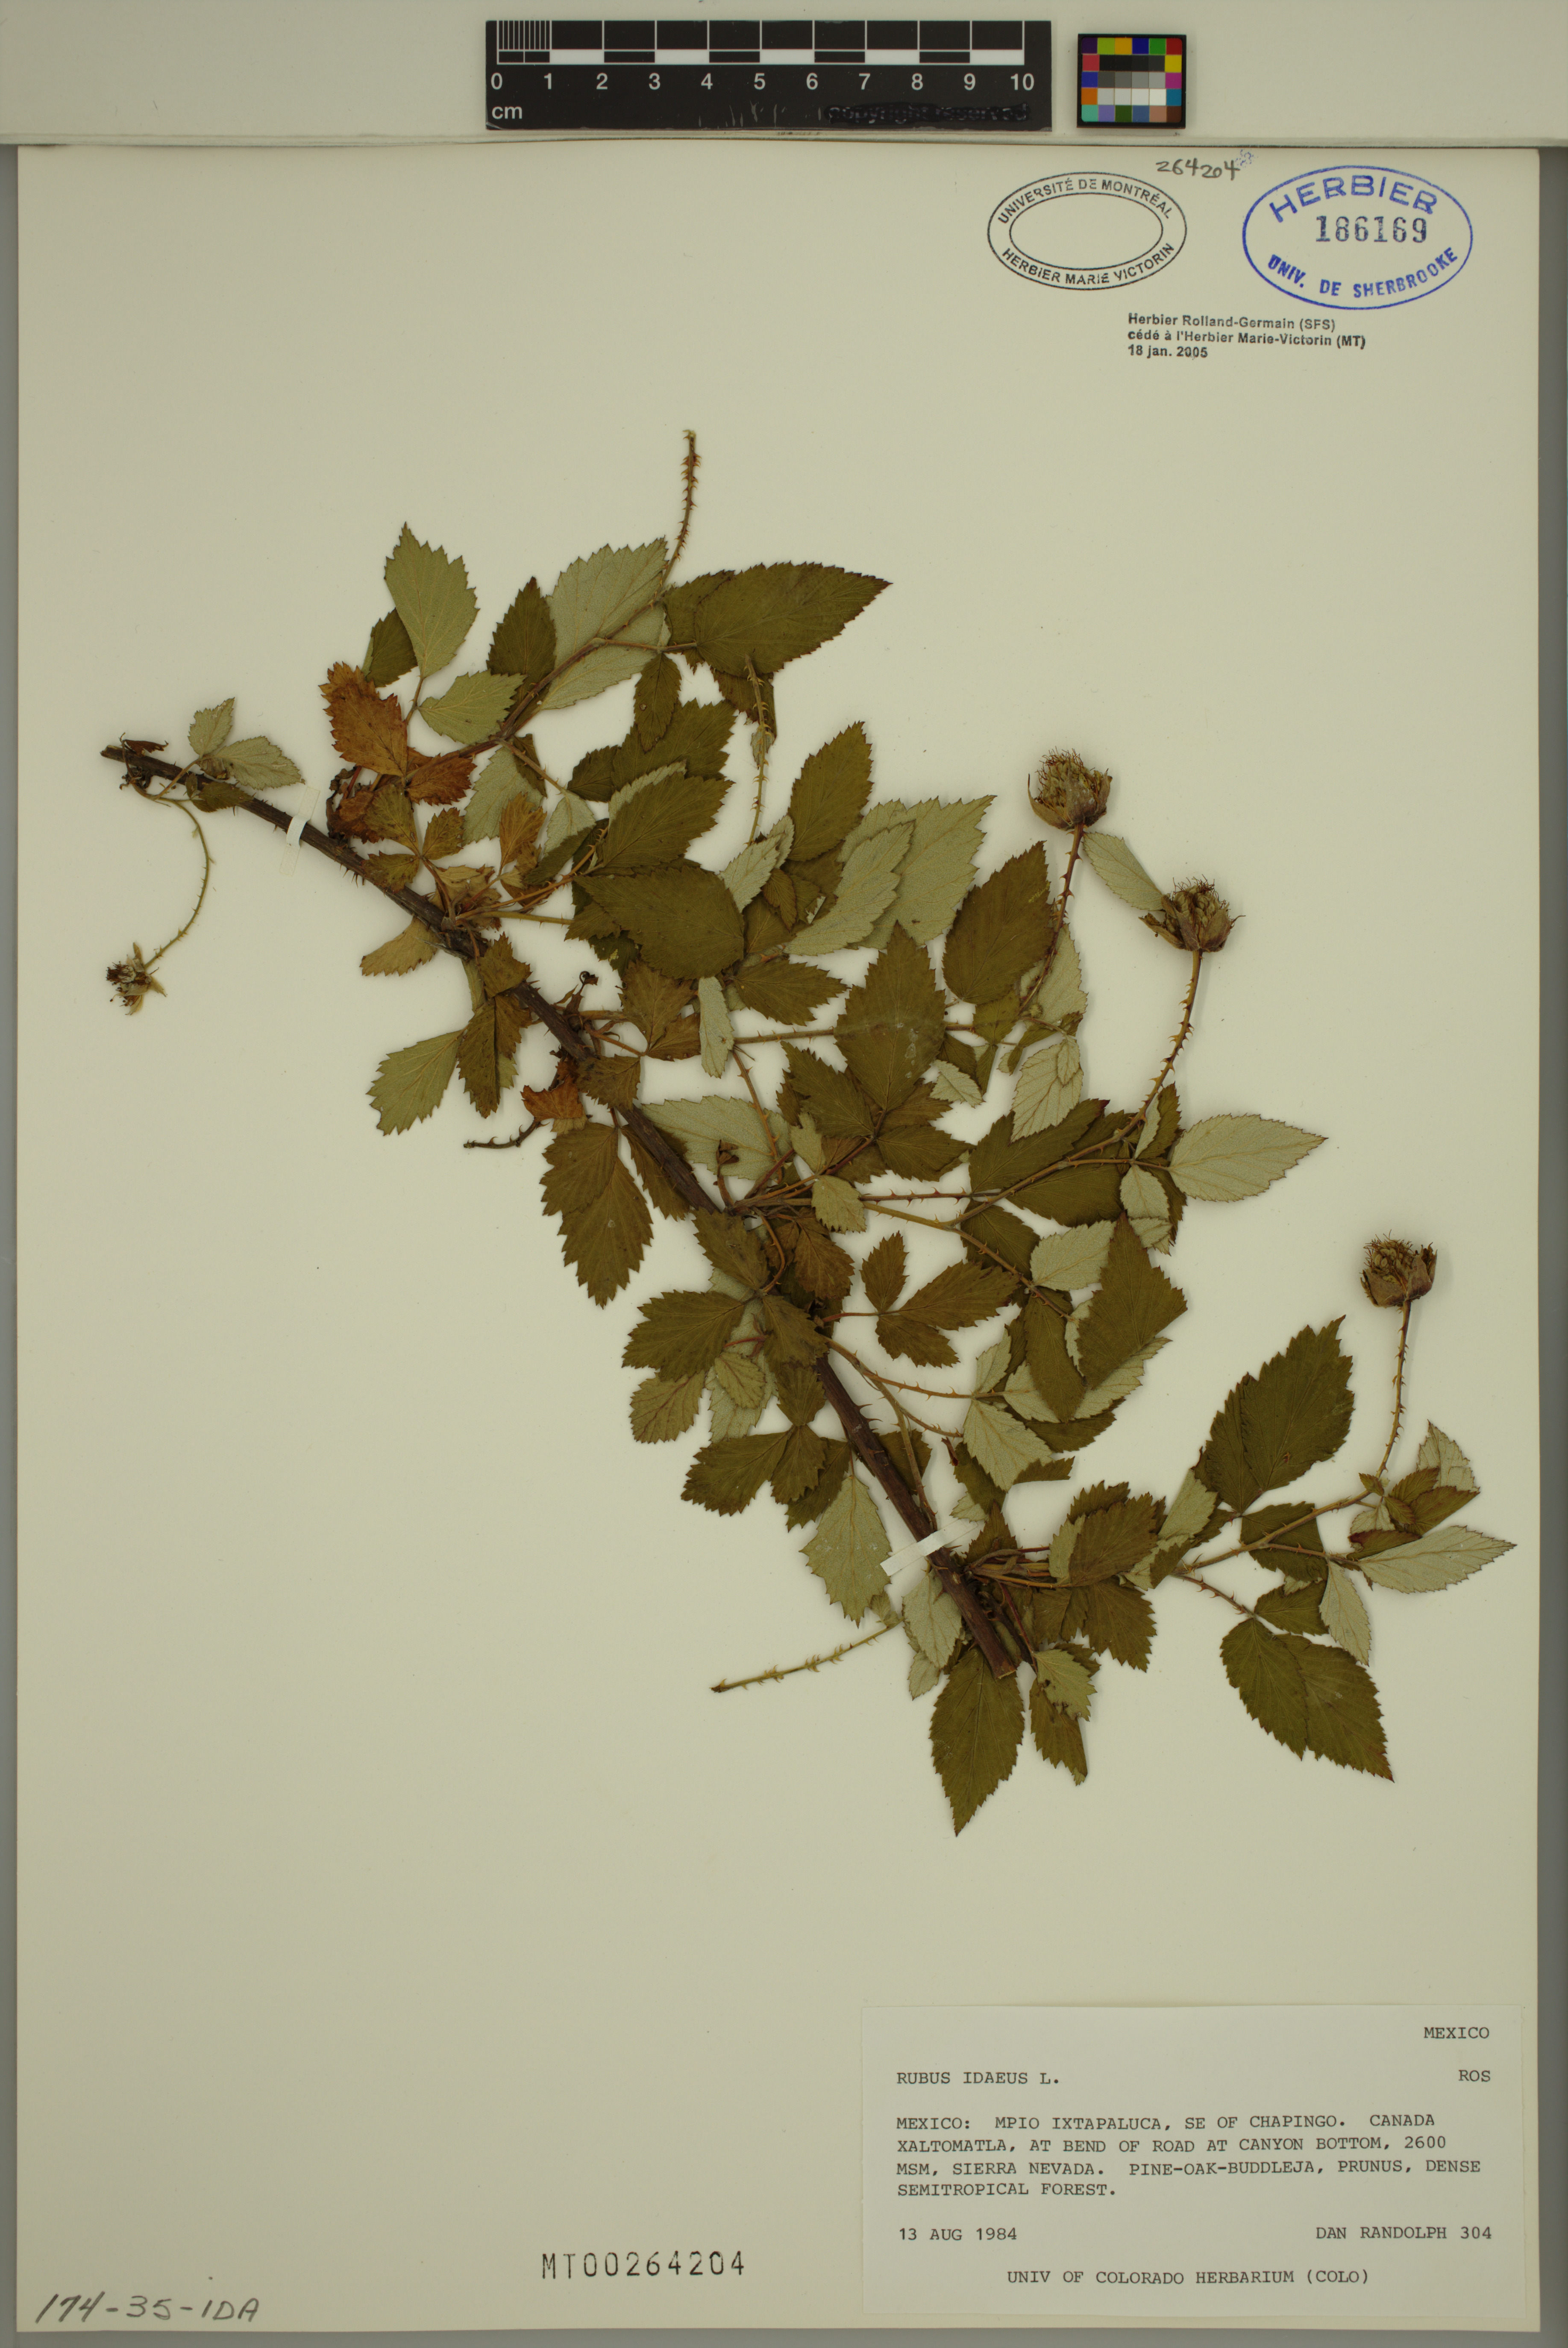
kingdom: Plantae
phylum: Tracheophyta
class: Magnoliopsida
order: Rosales
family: Rosaceae
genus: Rubus
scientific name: Rubus idaeus
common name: Raspberry
